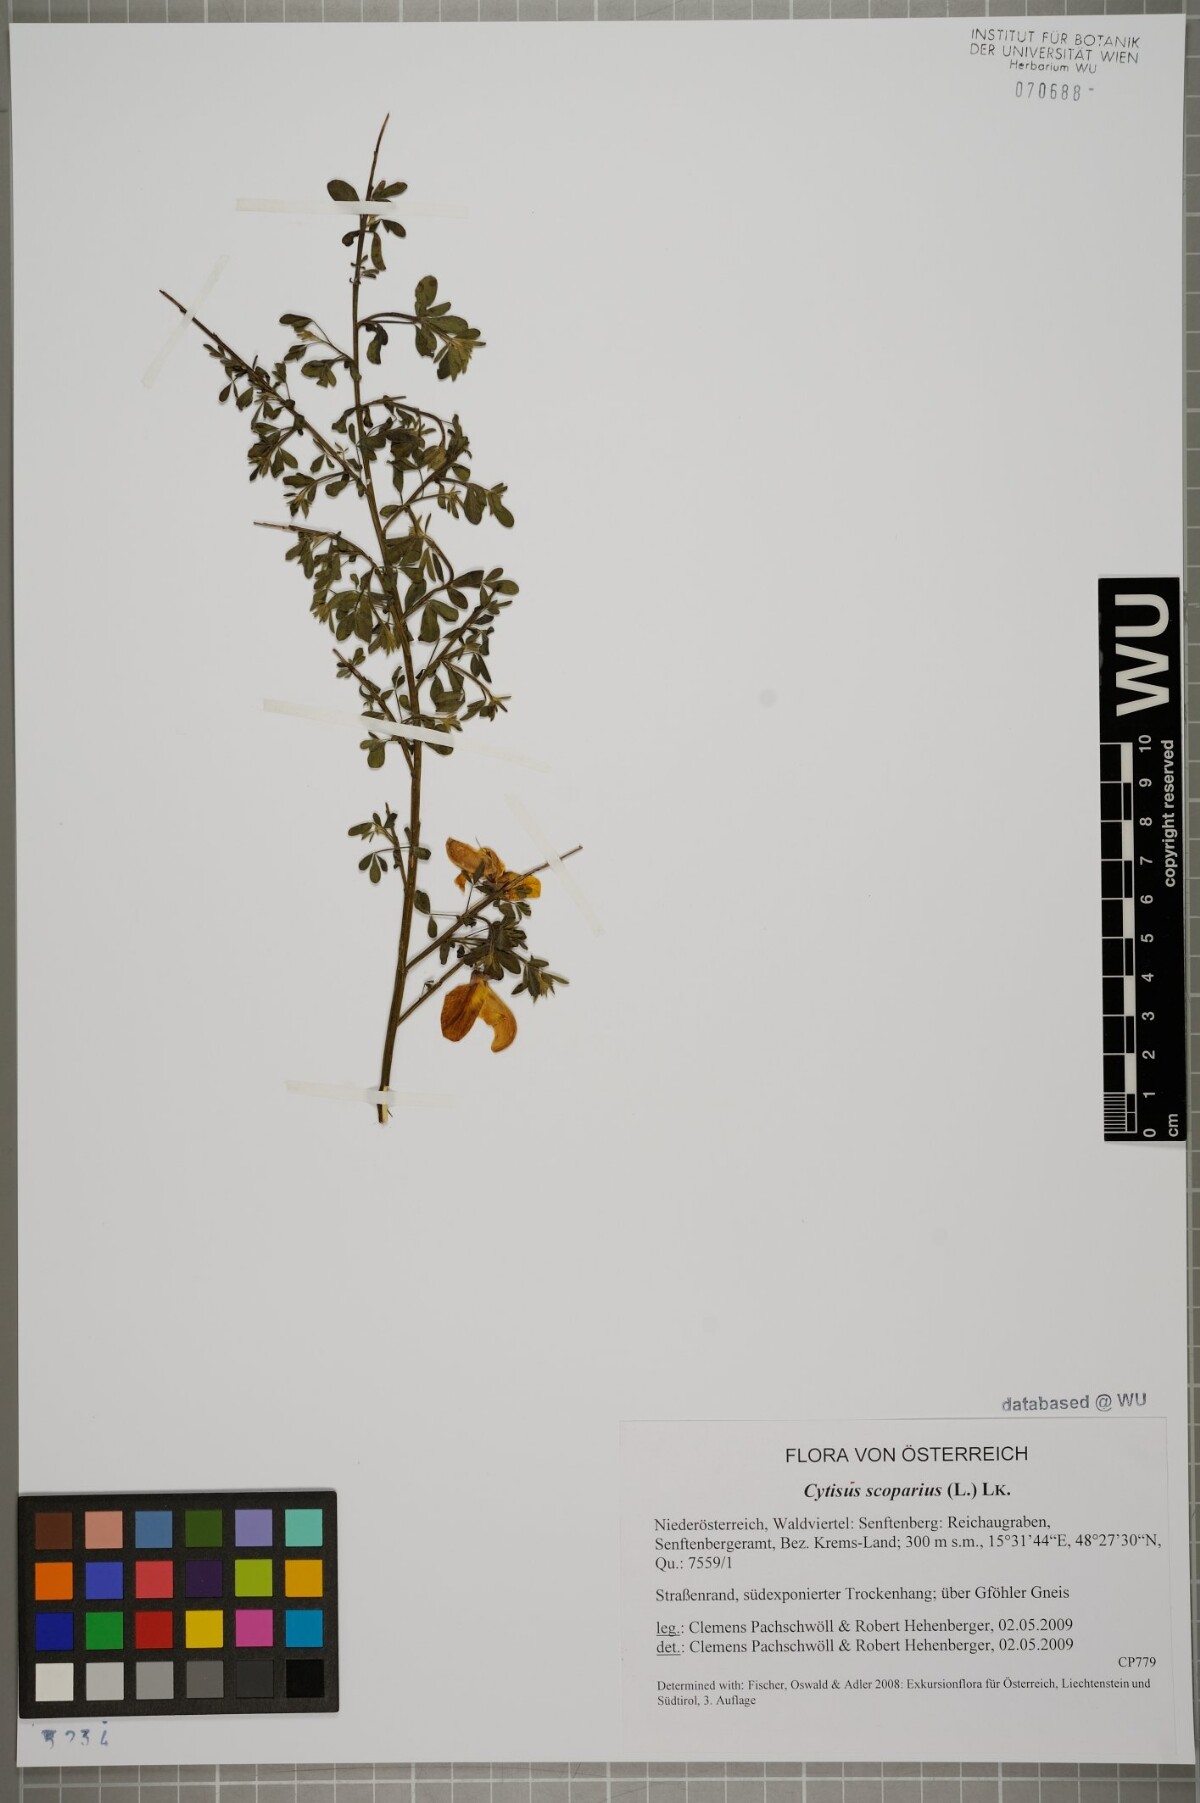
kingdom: Plantae
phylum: Tracheophyta
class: Magnoliopsida
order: Fabales
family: Fabaceae
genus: Cytisus
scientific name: Cytisus scoparius
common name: Scotch broom
